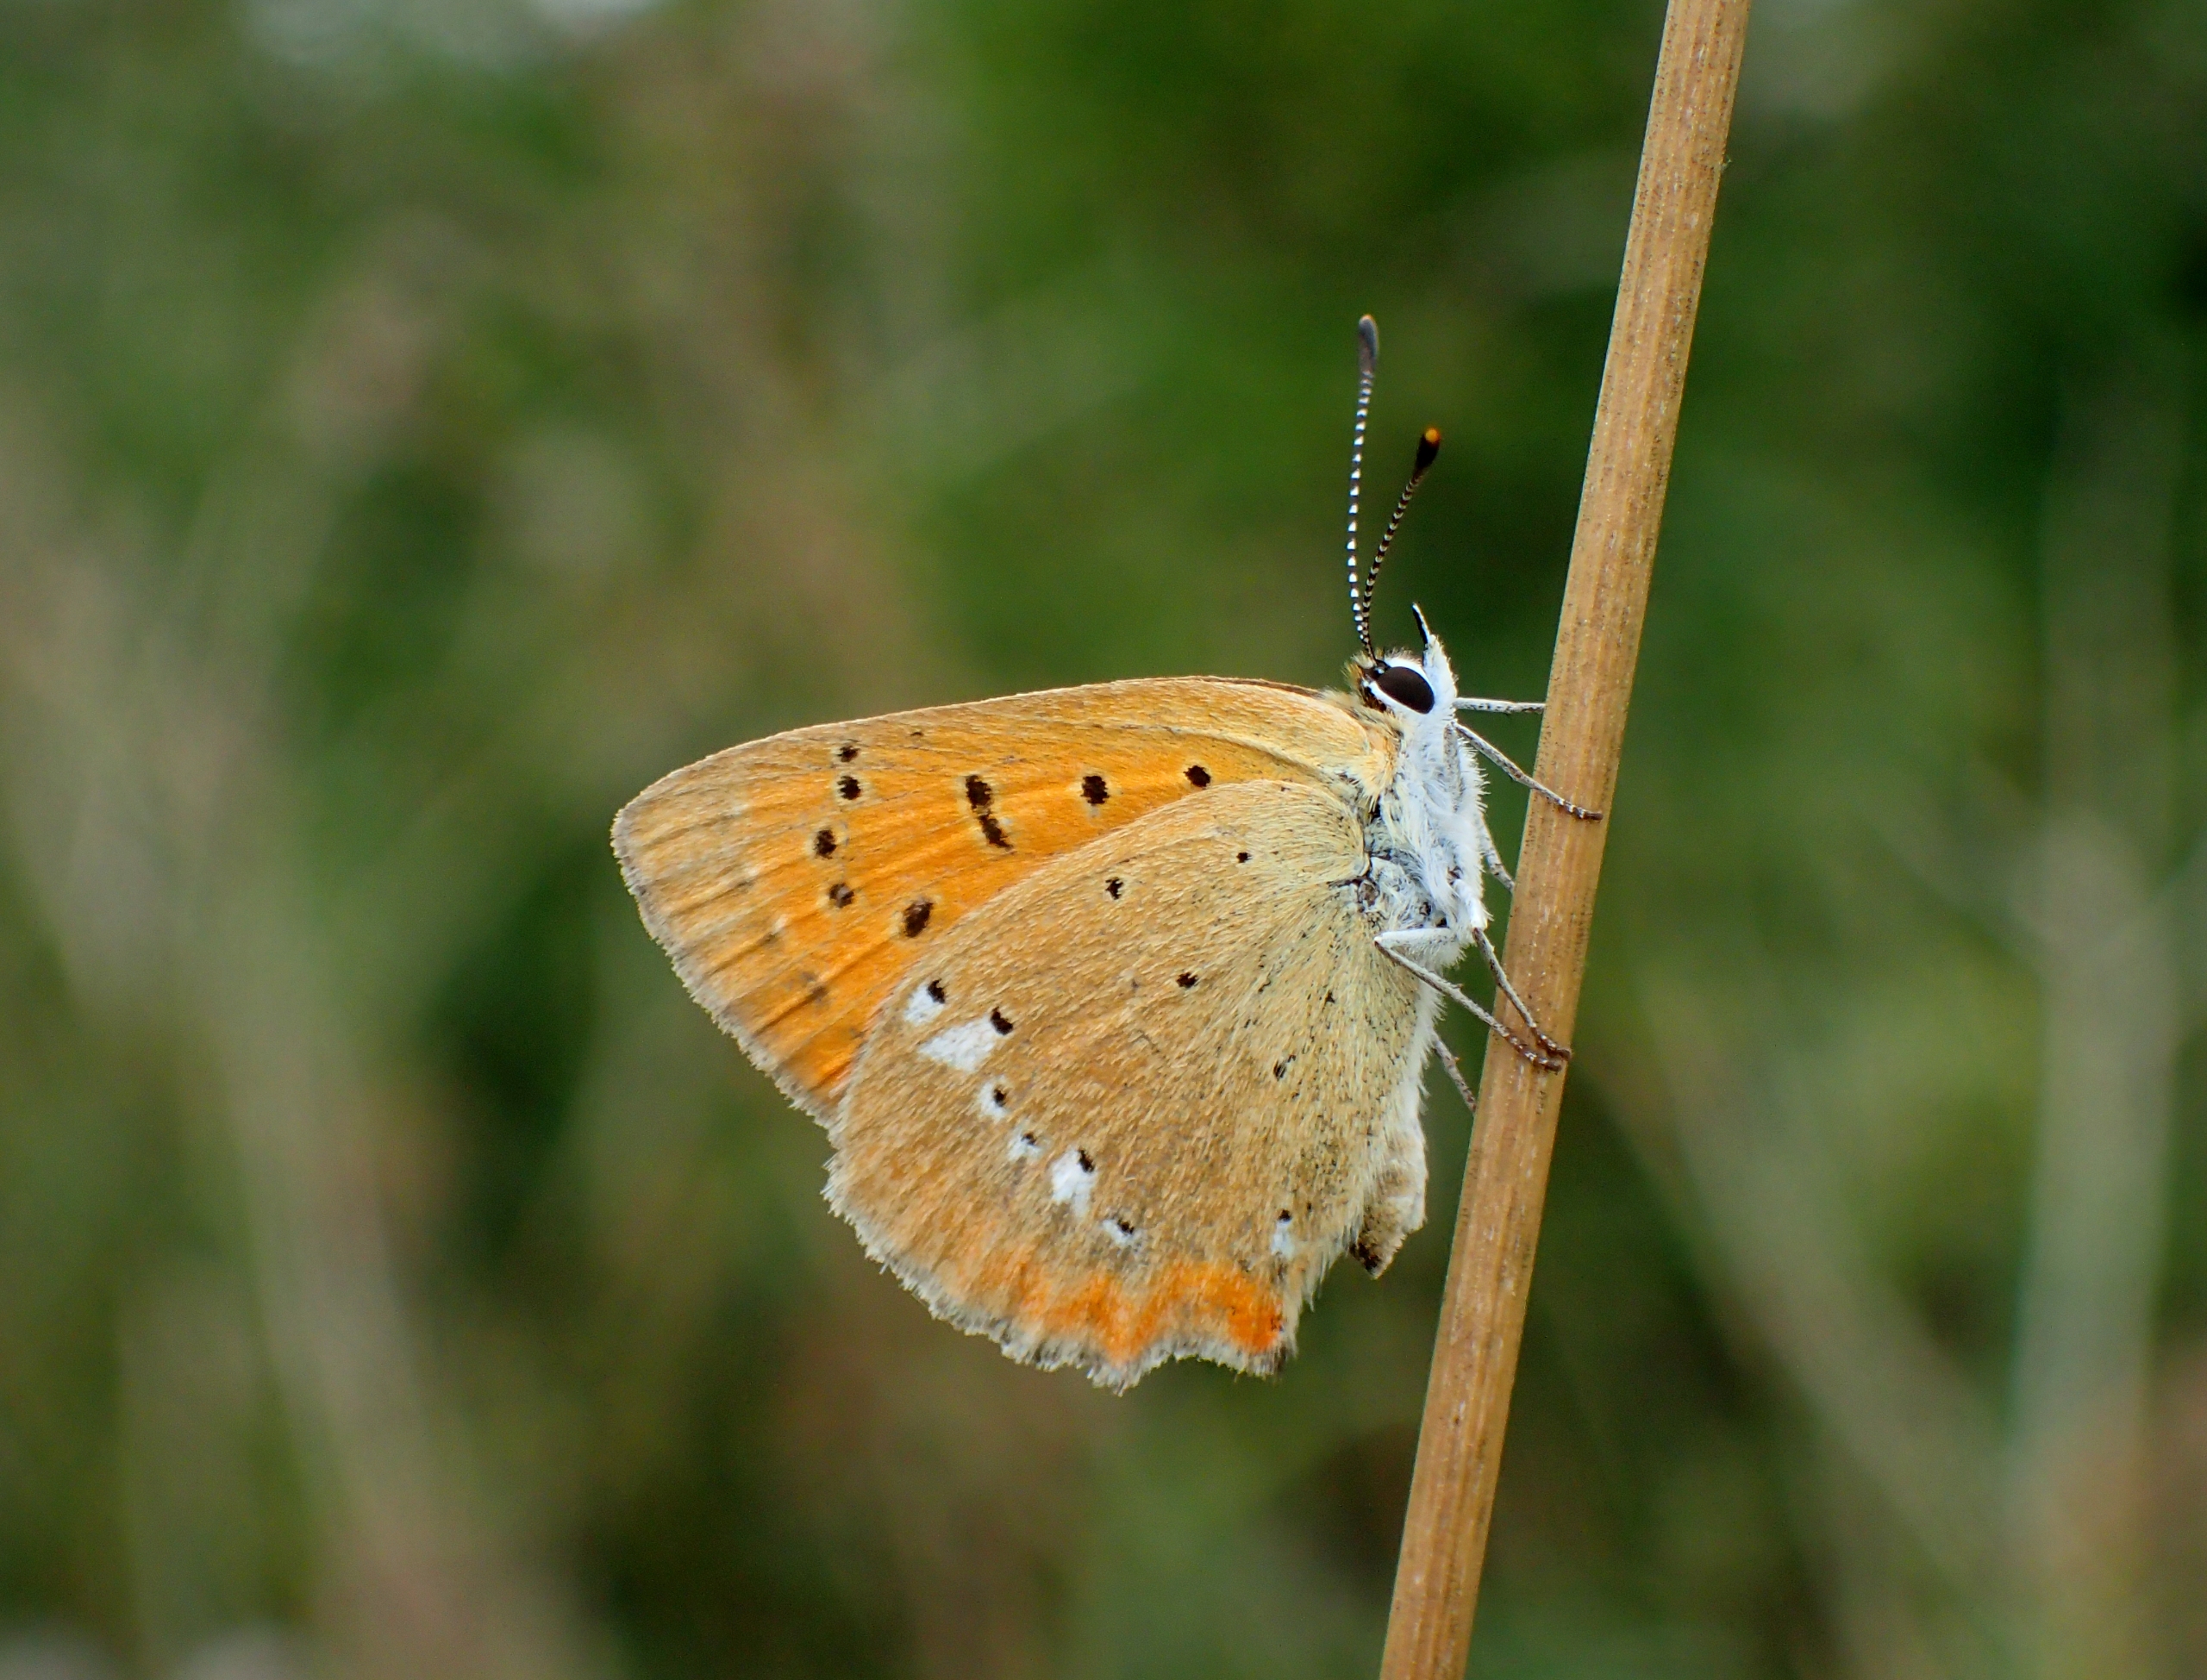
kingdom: Animalia
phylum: Arthropoda
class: Insecta
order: Lepidoptera
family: Lycaenidae
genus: Lycaena
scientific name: Lycaena virgaureae
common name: Dukatsommerfugl
